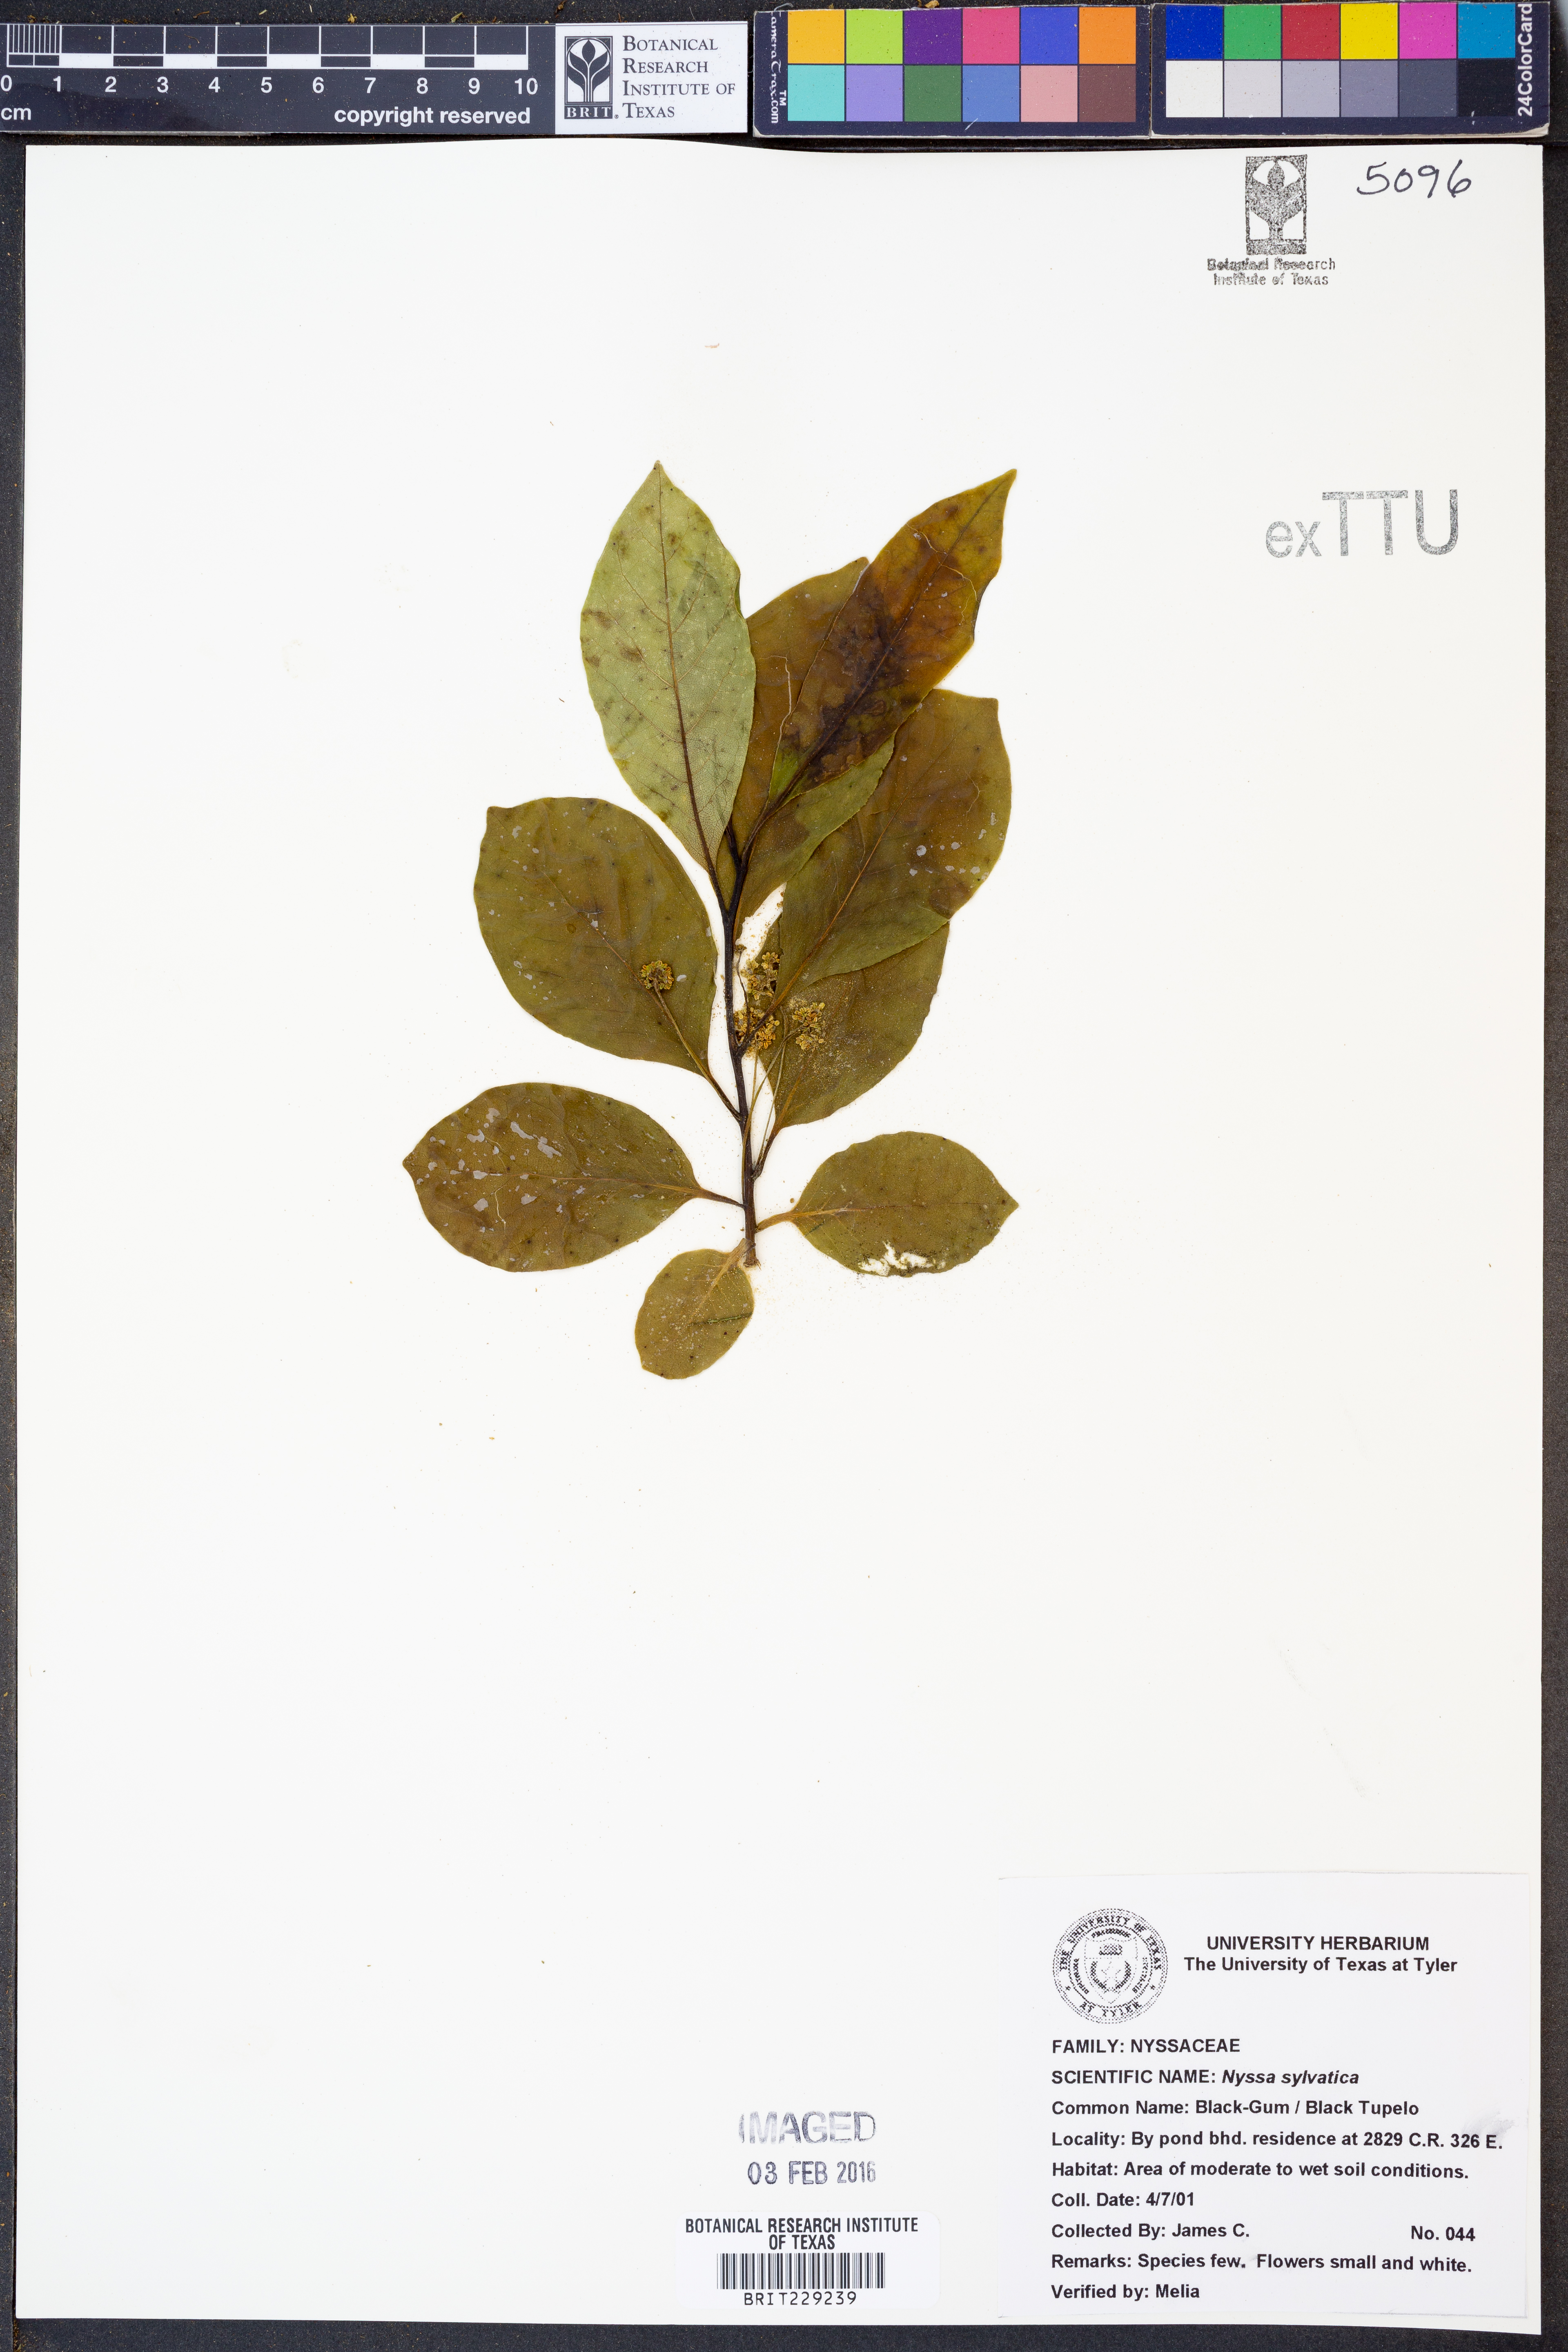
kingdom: Plantae
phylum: Tracheophyta
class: Magnoliopsida
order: Cornales
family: Nyssaceae
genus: Nyssa
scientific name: Nyssa sylvatica
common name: Black tupelo
